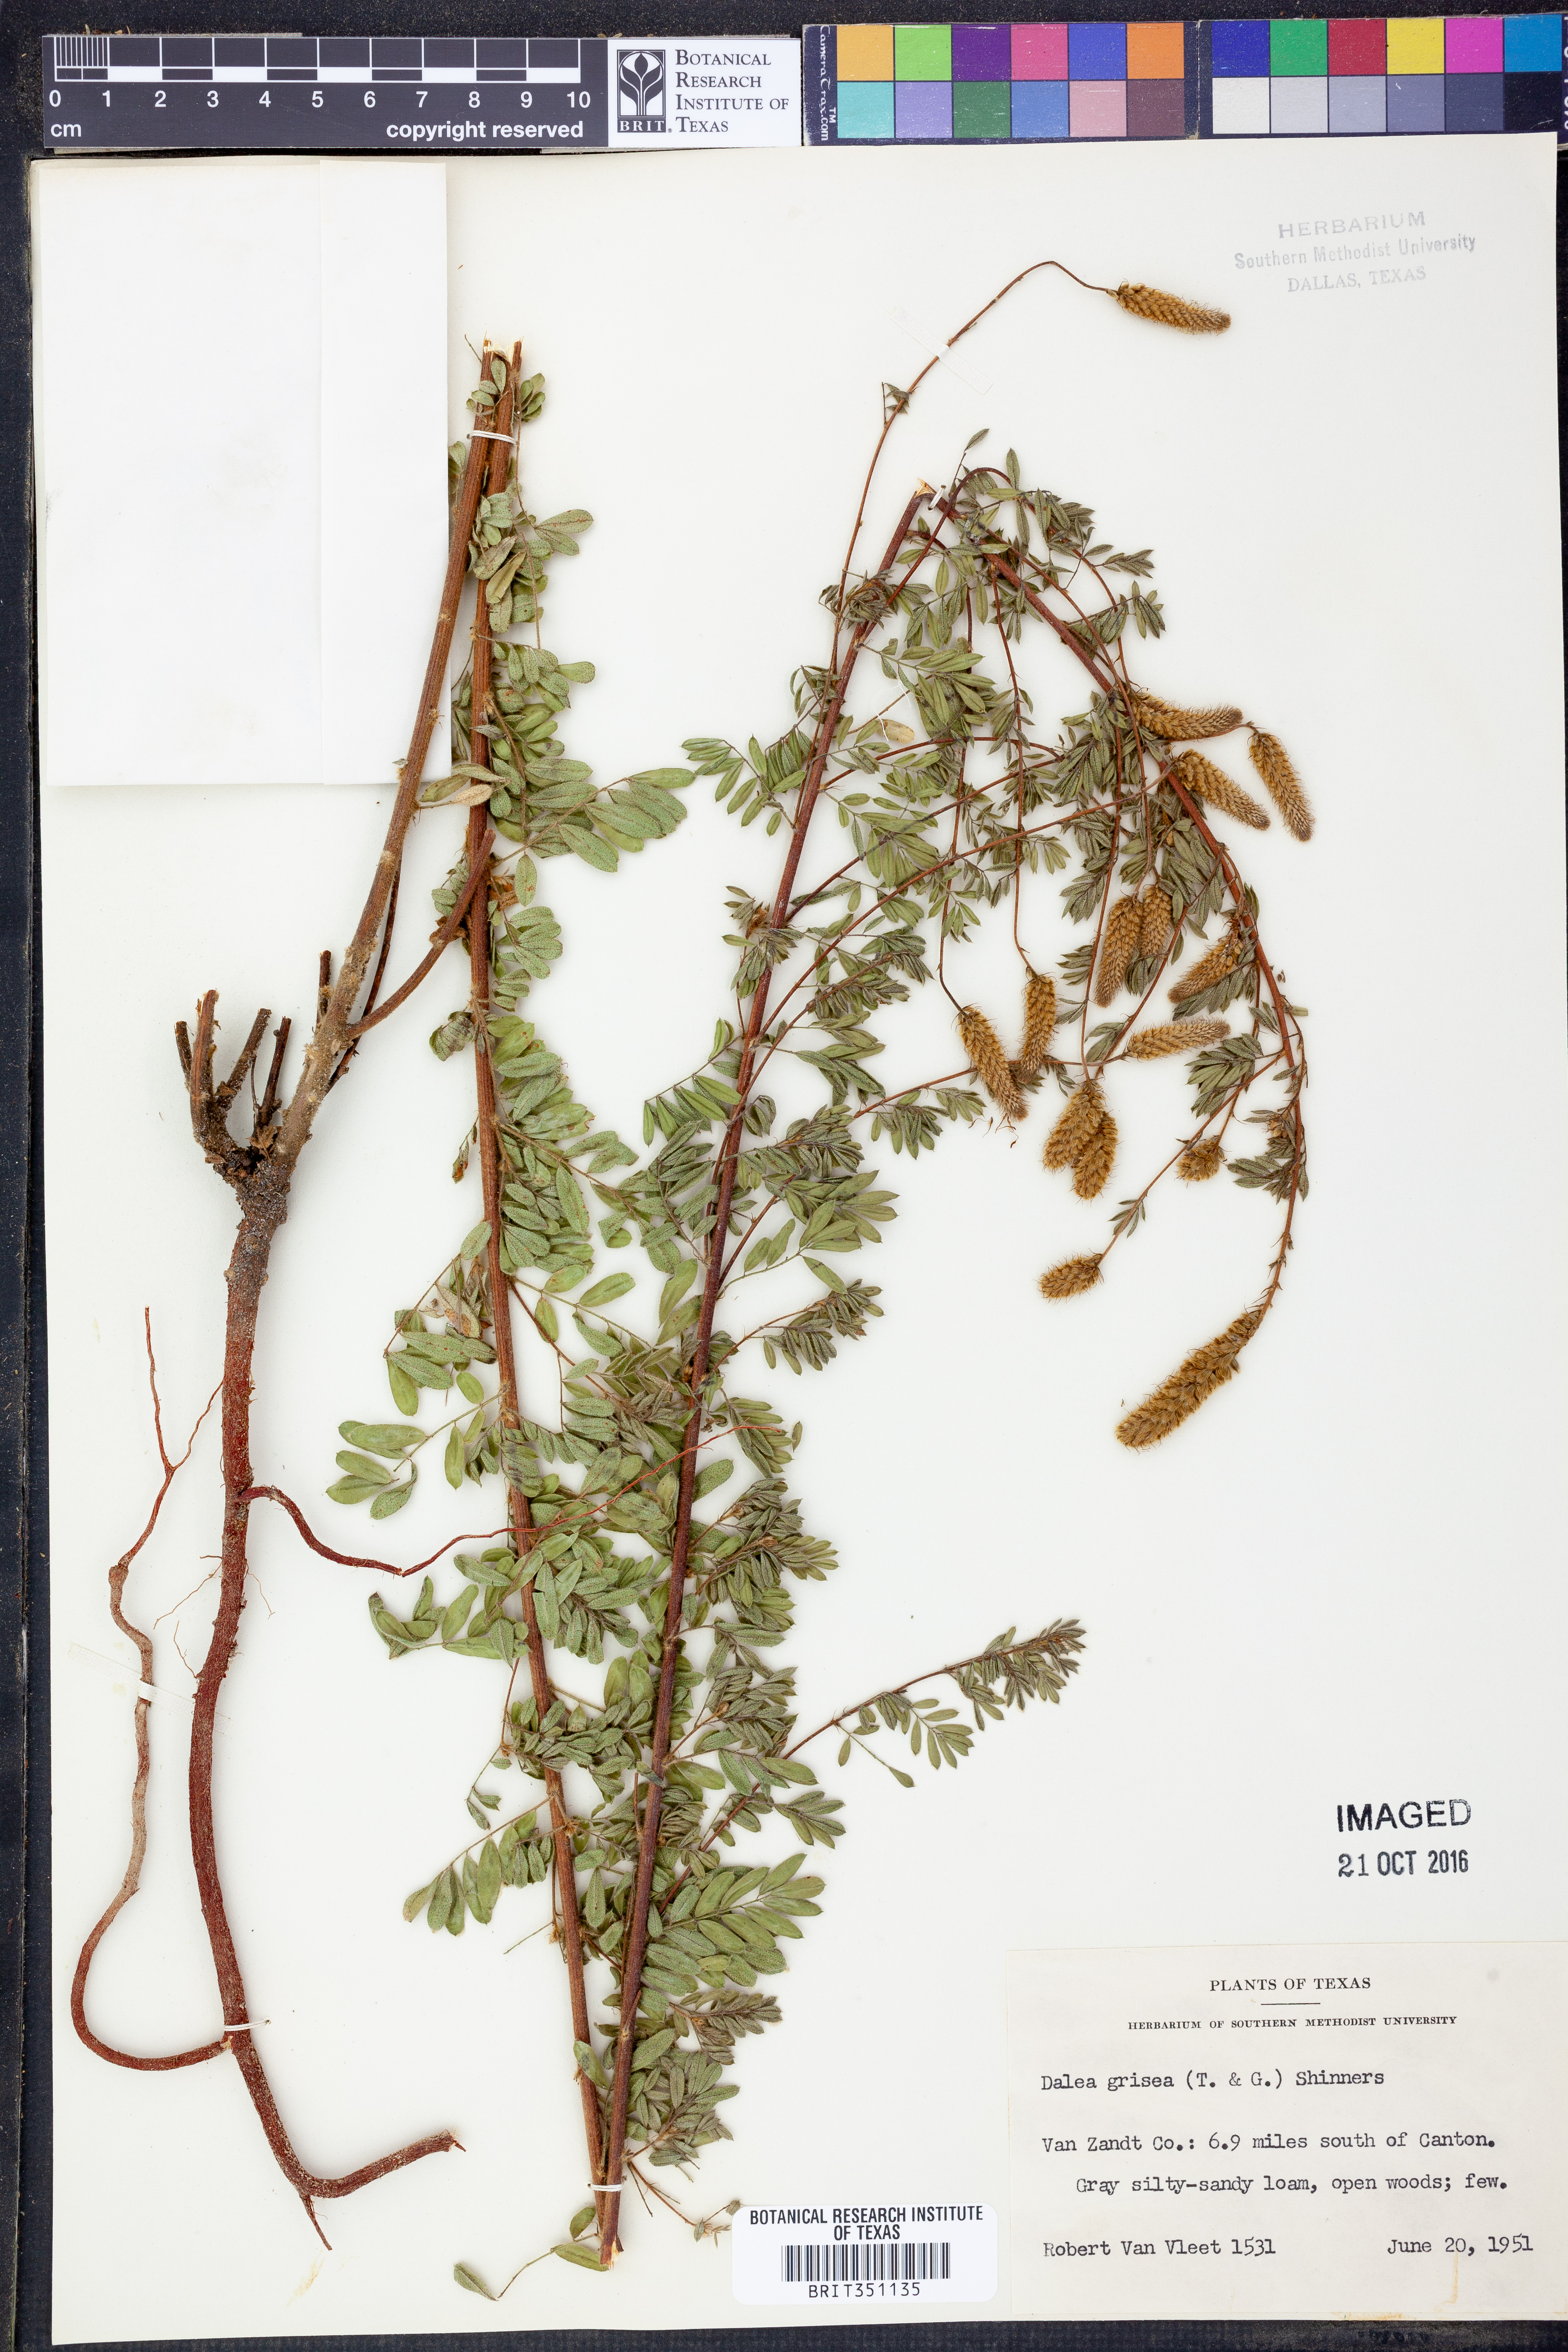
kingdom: Plantae
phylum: Tracheophyta
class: Magnoliopsida
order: Fabales
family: Fabaceae
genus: Dalea
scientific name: Dalea villosa
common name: Silky prairie-clover
